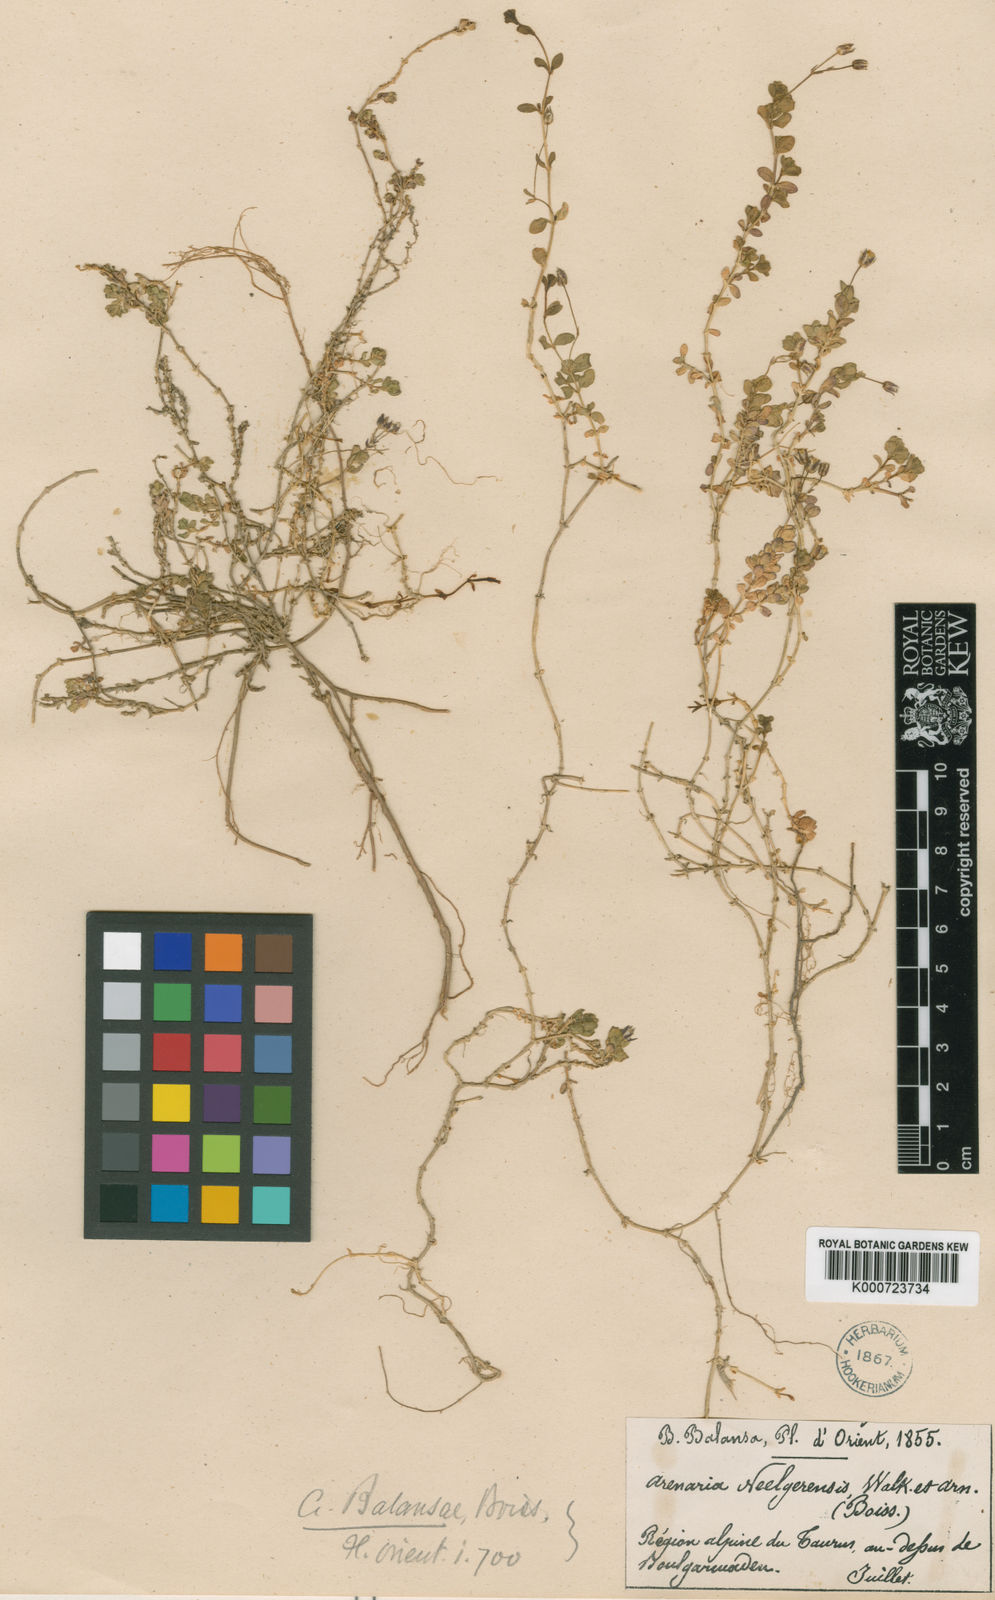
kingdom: Plantae
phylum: Tracheophyta
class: Magnoliopsida
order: Caryophyllales
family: Caryophyllaceae
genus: Arenaria
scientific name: Arenaria balansae
